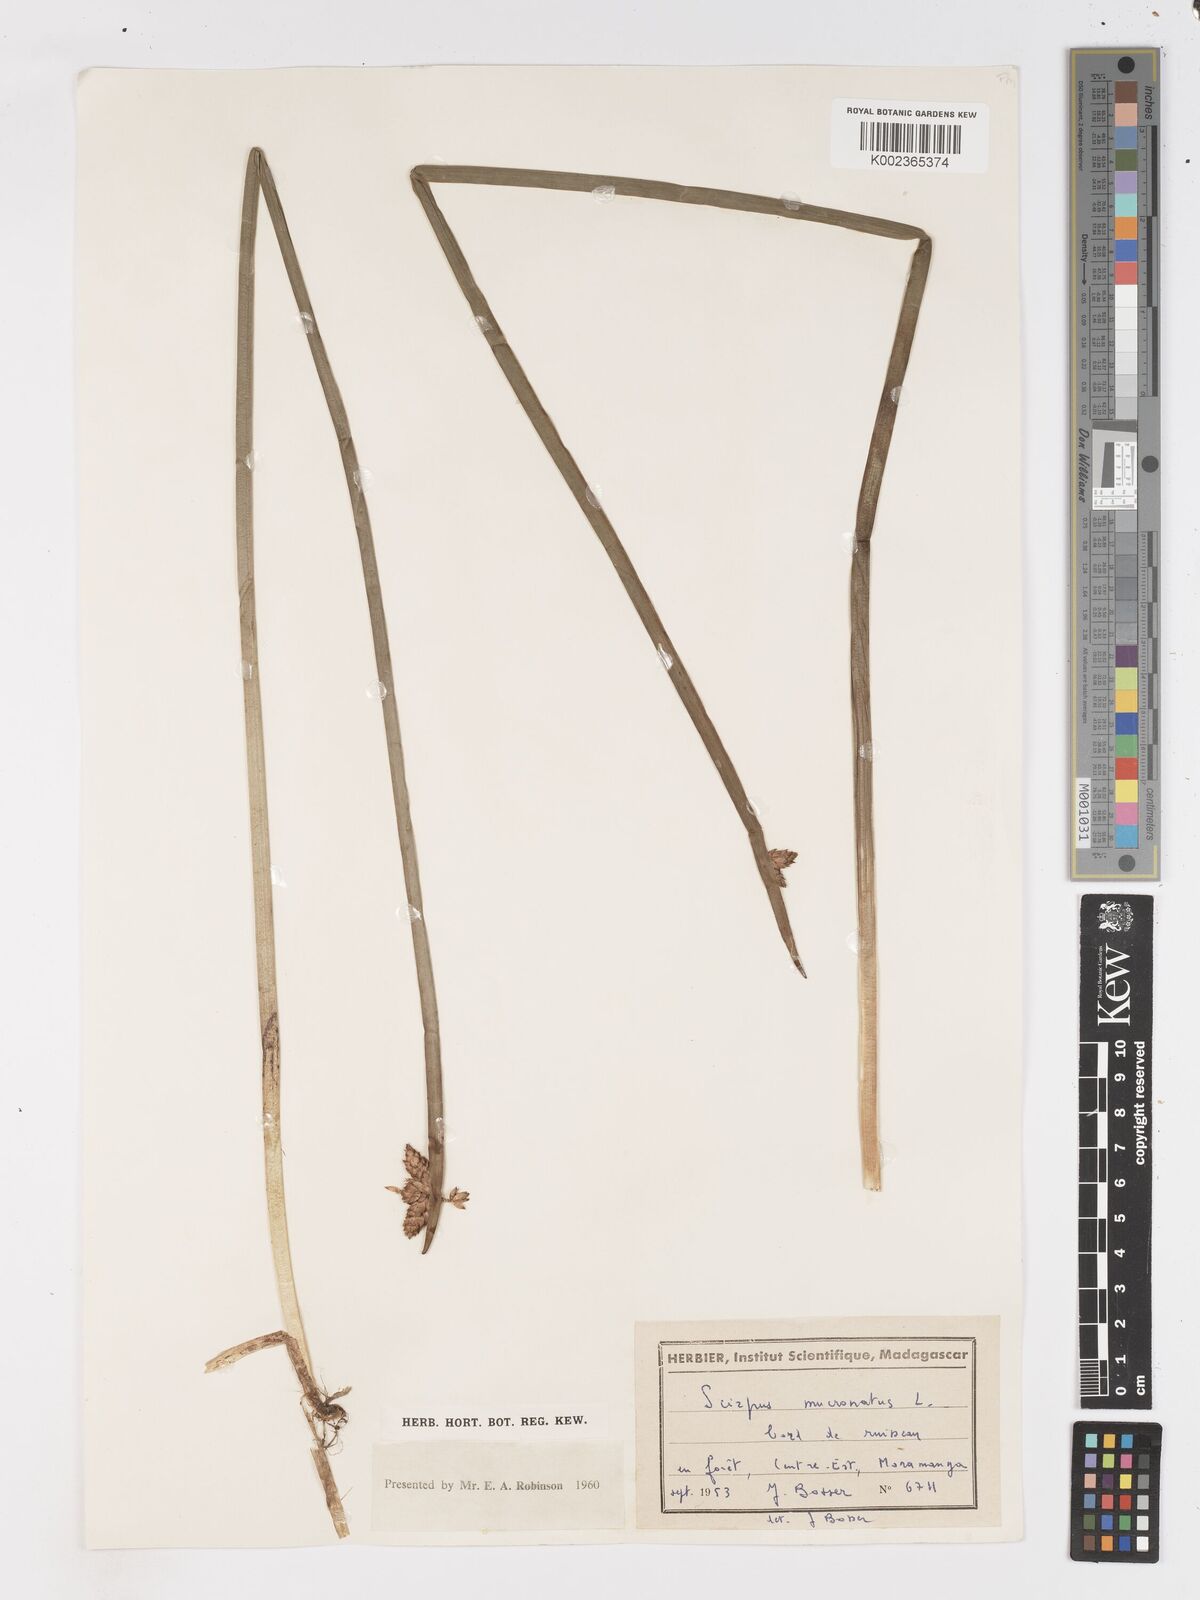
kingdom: Plantae
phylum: Tracheophyta
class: Liliopsida
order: Poales
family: Cyperaceae
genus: Schoenoplectiella
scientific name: Schoenoplectiella mucronata
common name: Bog bulrush
